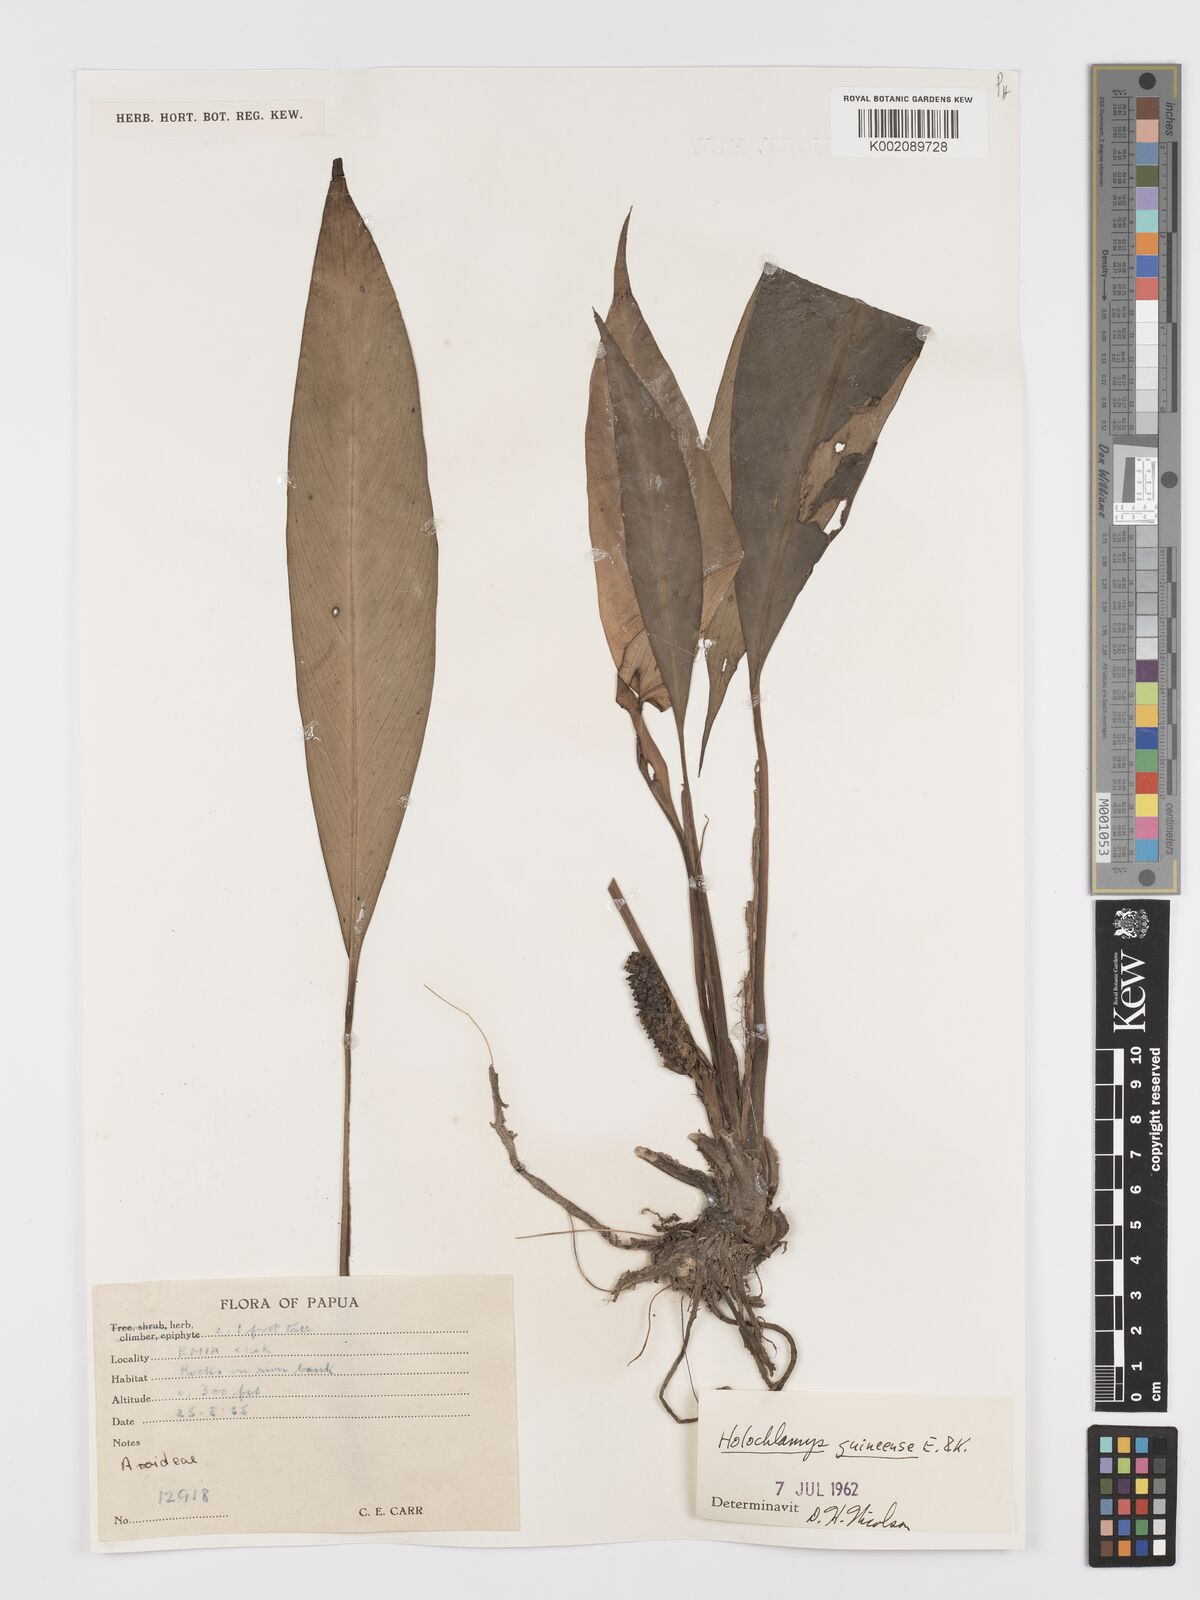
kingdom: Plantae
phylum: Tracheophyta
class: Liliopsida
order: Alismatales
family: Araceae
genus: Holochlamys
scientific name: Holochlamys beccarii
